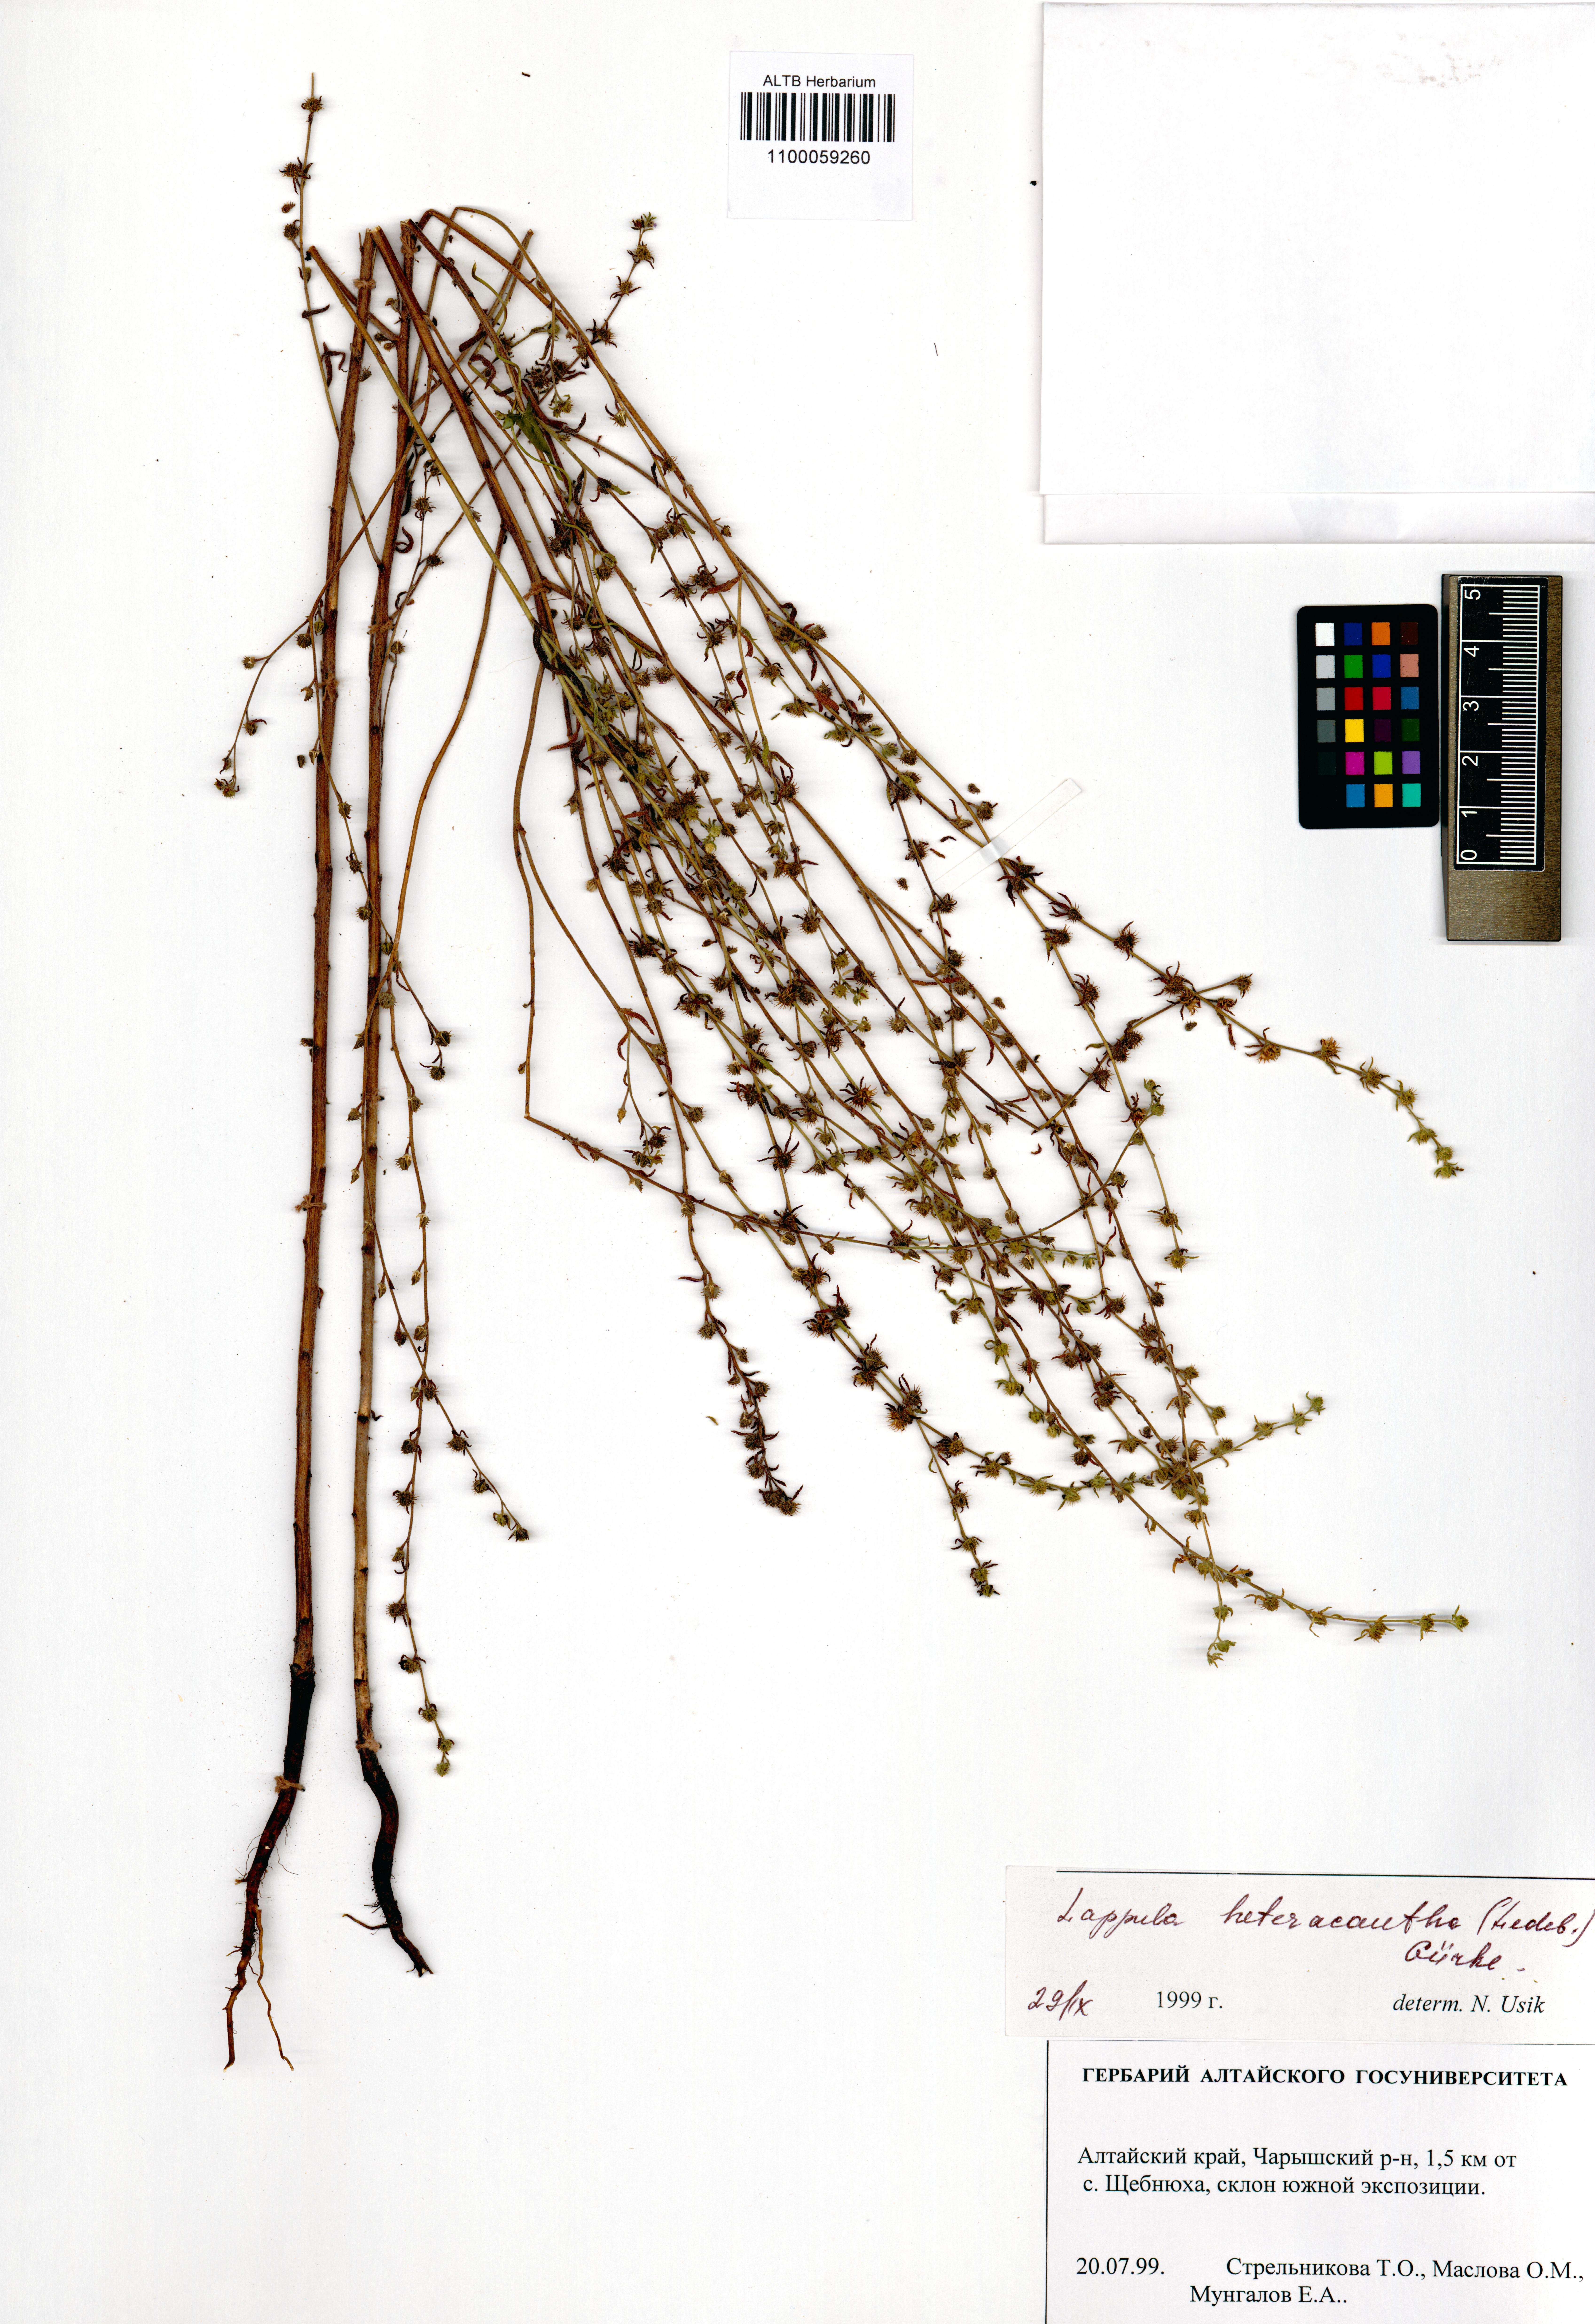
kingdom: Plantae
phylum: Tracheophyta
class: Magnoliopsida
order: Boraginales
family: Boraginaceae
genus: Lappula
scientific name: Lappula heteracantha
